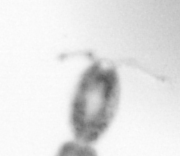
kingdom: Animalia
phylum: Arthropoda
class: Copepoda
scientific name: Copepoda
